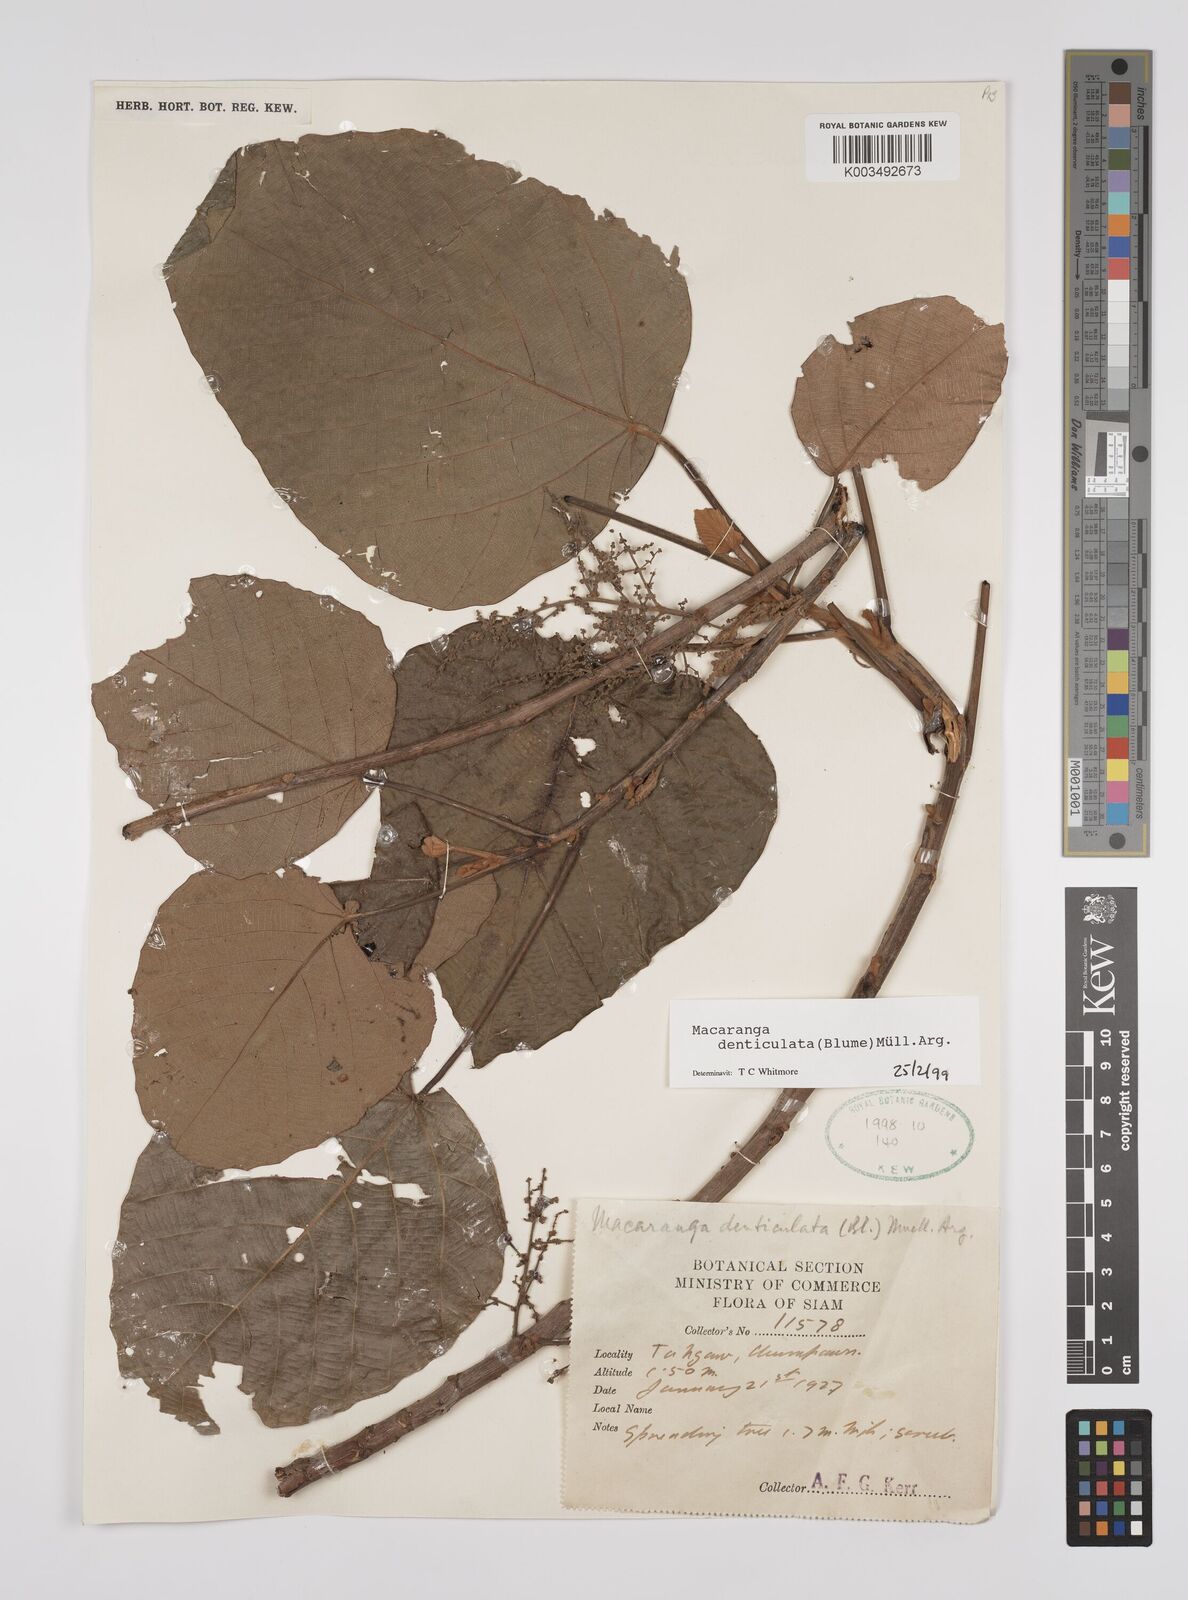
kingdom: Plantae
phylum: Tracheophyta
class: Magnoliopsida
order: Malpighiales
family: Euphorbiaceae
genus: Macaranga
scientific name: Macaranga denticulata
